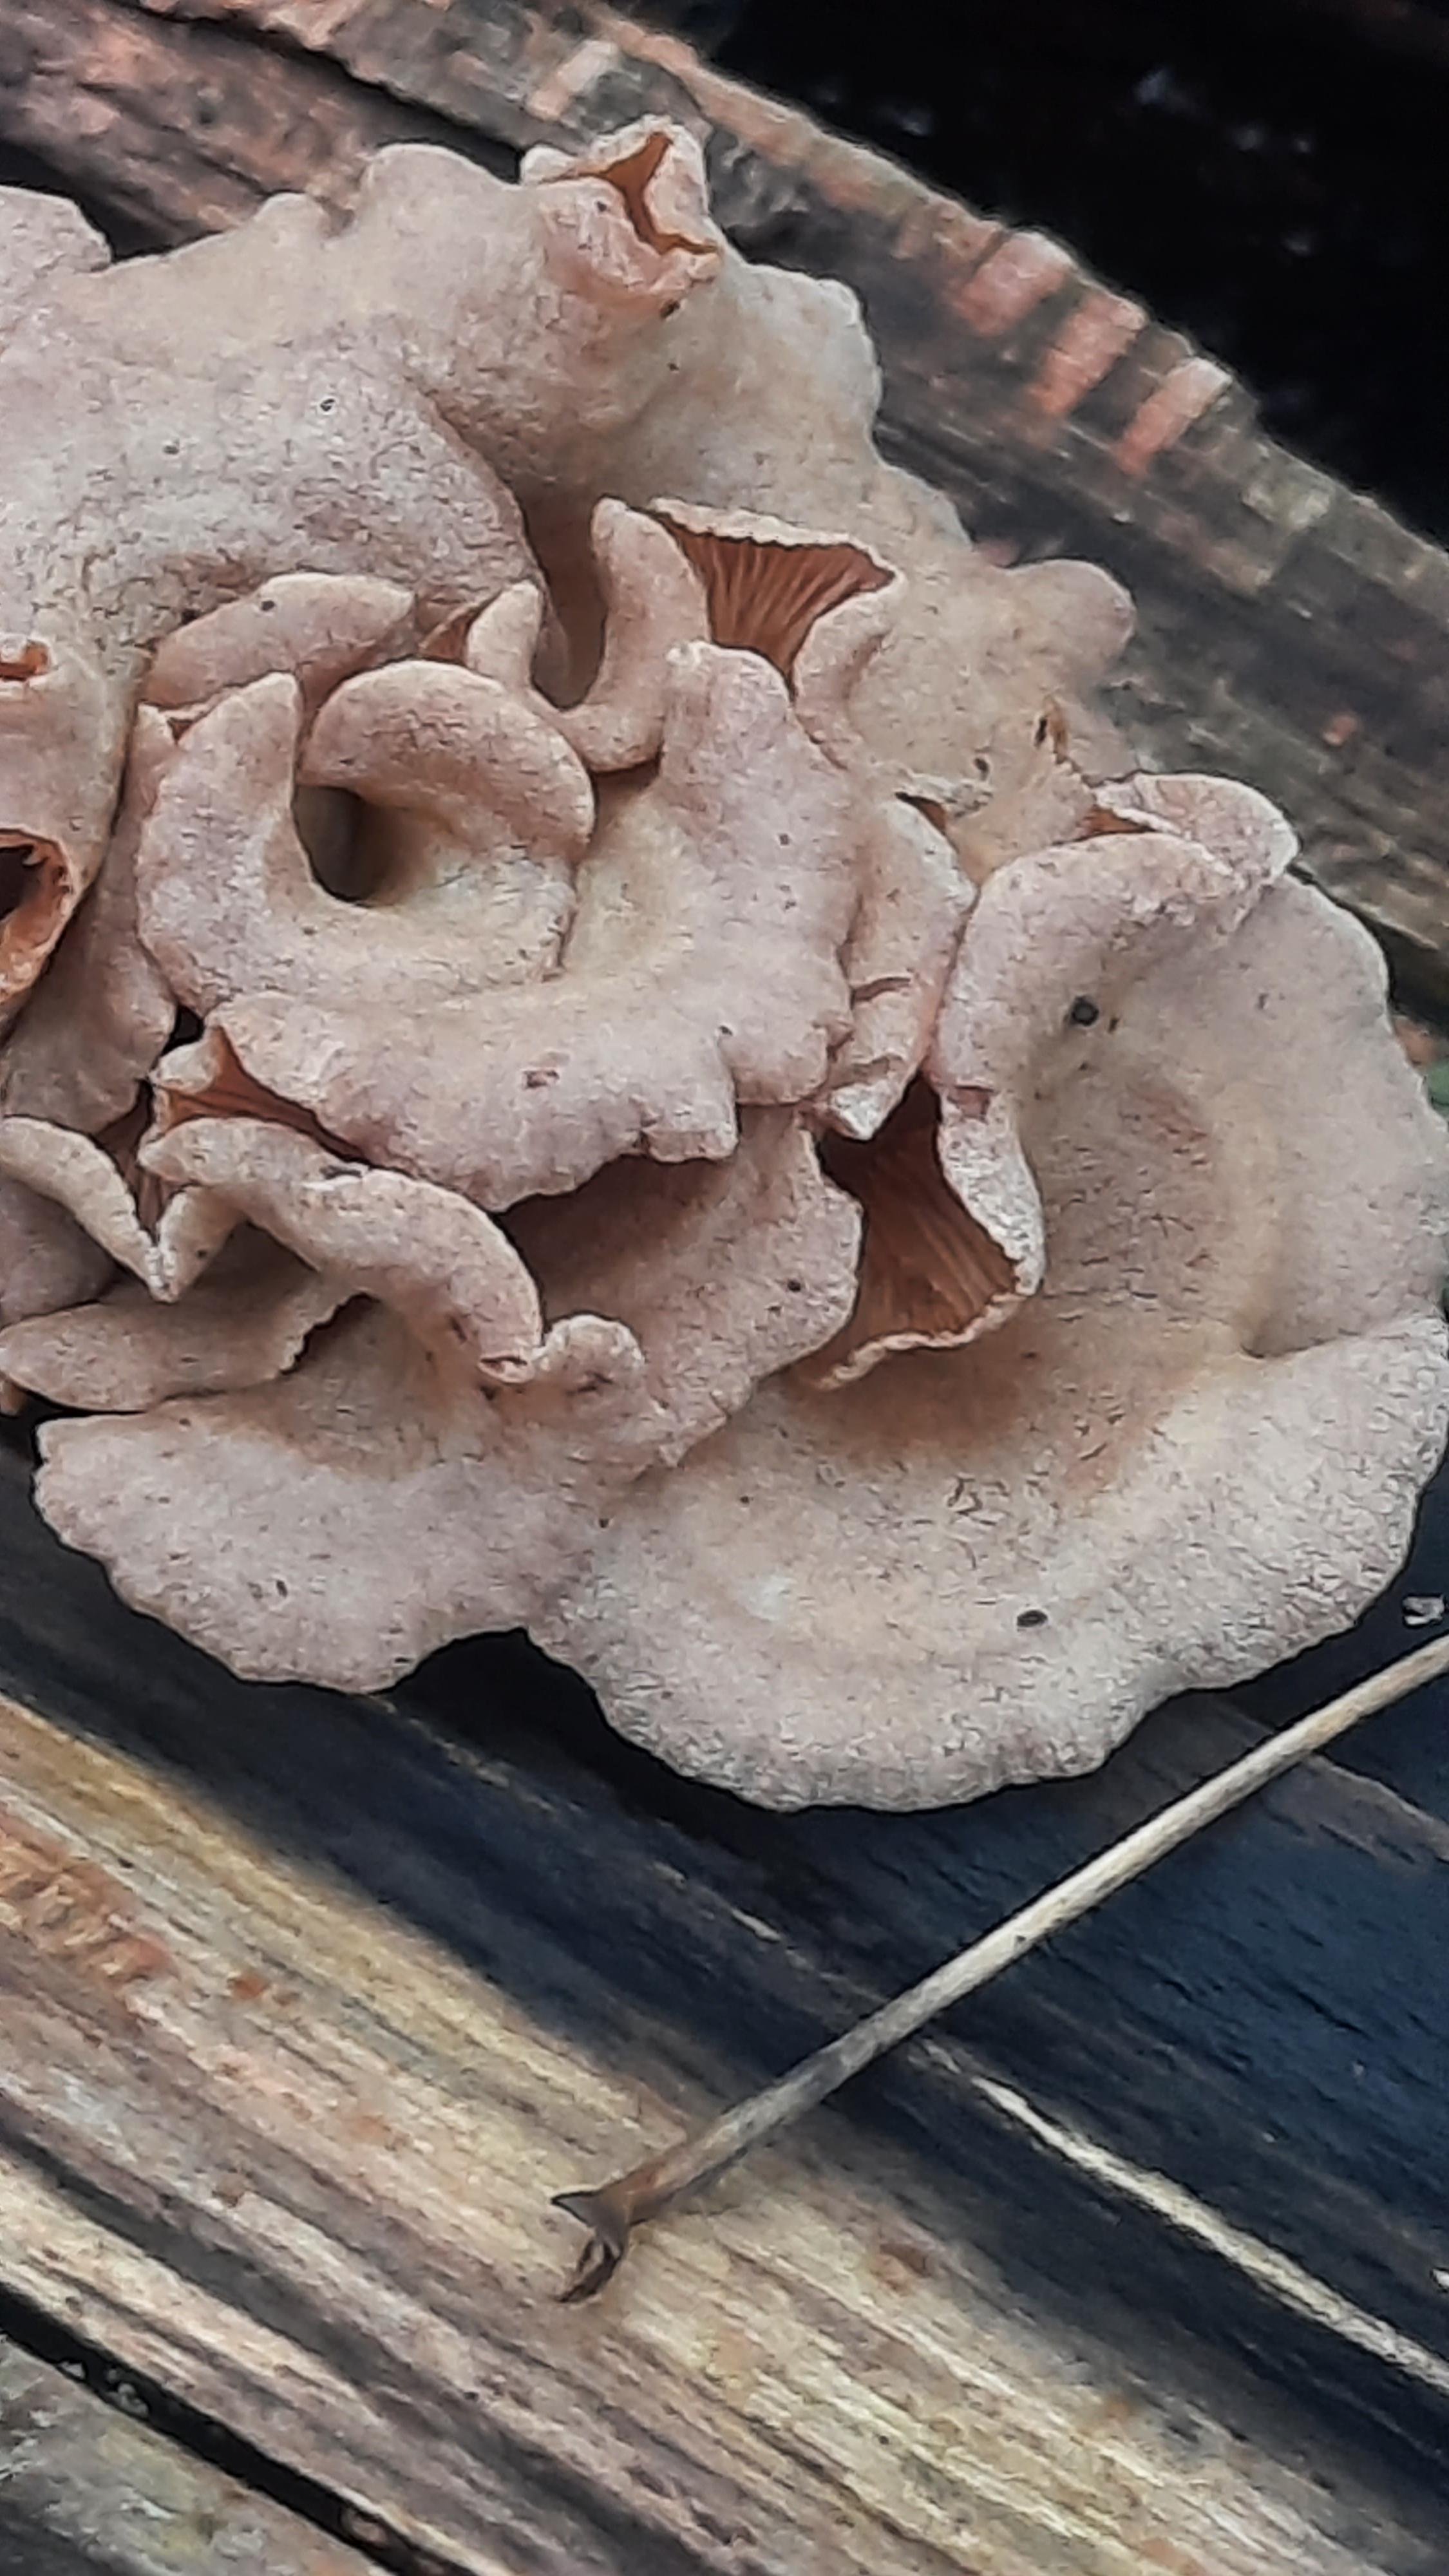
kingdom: Fungi
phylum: Basidiomycota
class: Agaricomycetes
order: Agaricales
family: Mycenaceae
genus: Panellus
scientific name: Panellus stipticus
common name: kliddet epaulethat
